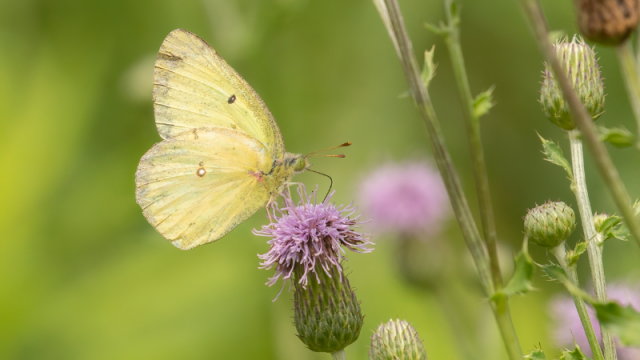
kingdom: Animalia
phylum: Arthropoda
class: Insecta
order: Lepidoptera
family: Pieridae
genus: Colias
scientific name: Colias philodice
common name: Clouded Sulphur
